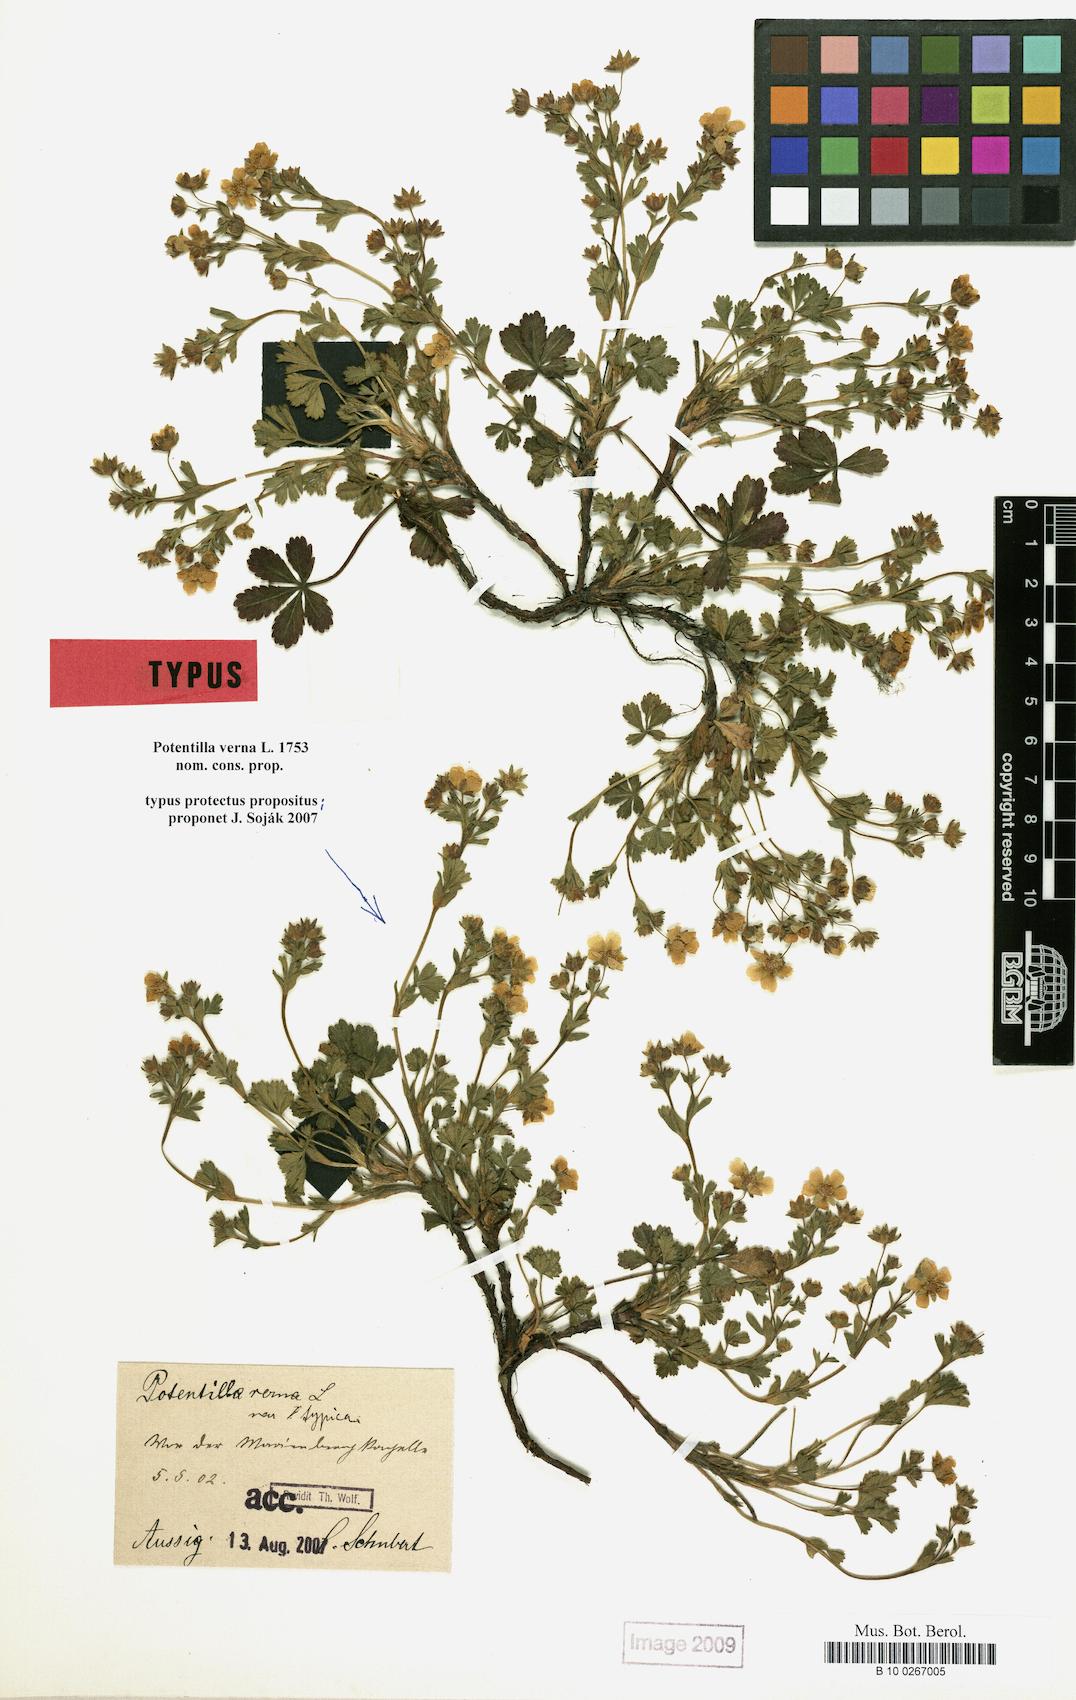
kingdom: Plantae
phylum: Tracheophyta
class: Magnoliopsida
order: Rosales
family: Rosaceae
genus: Potentilla
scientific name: Potentilla verna
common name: Spring cinquefoil
